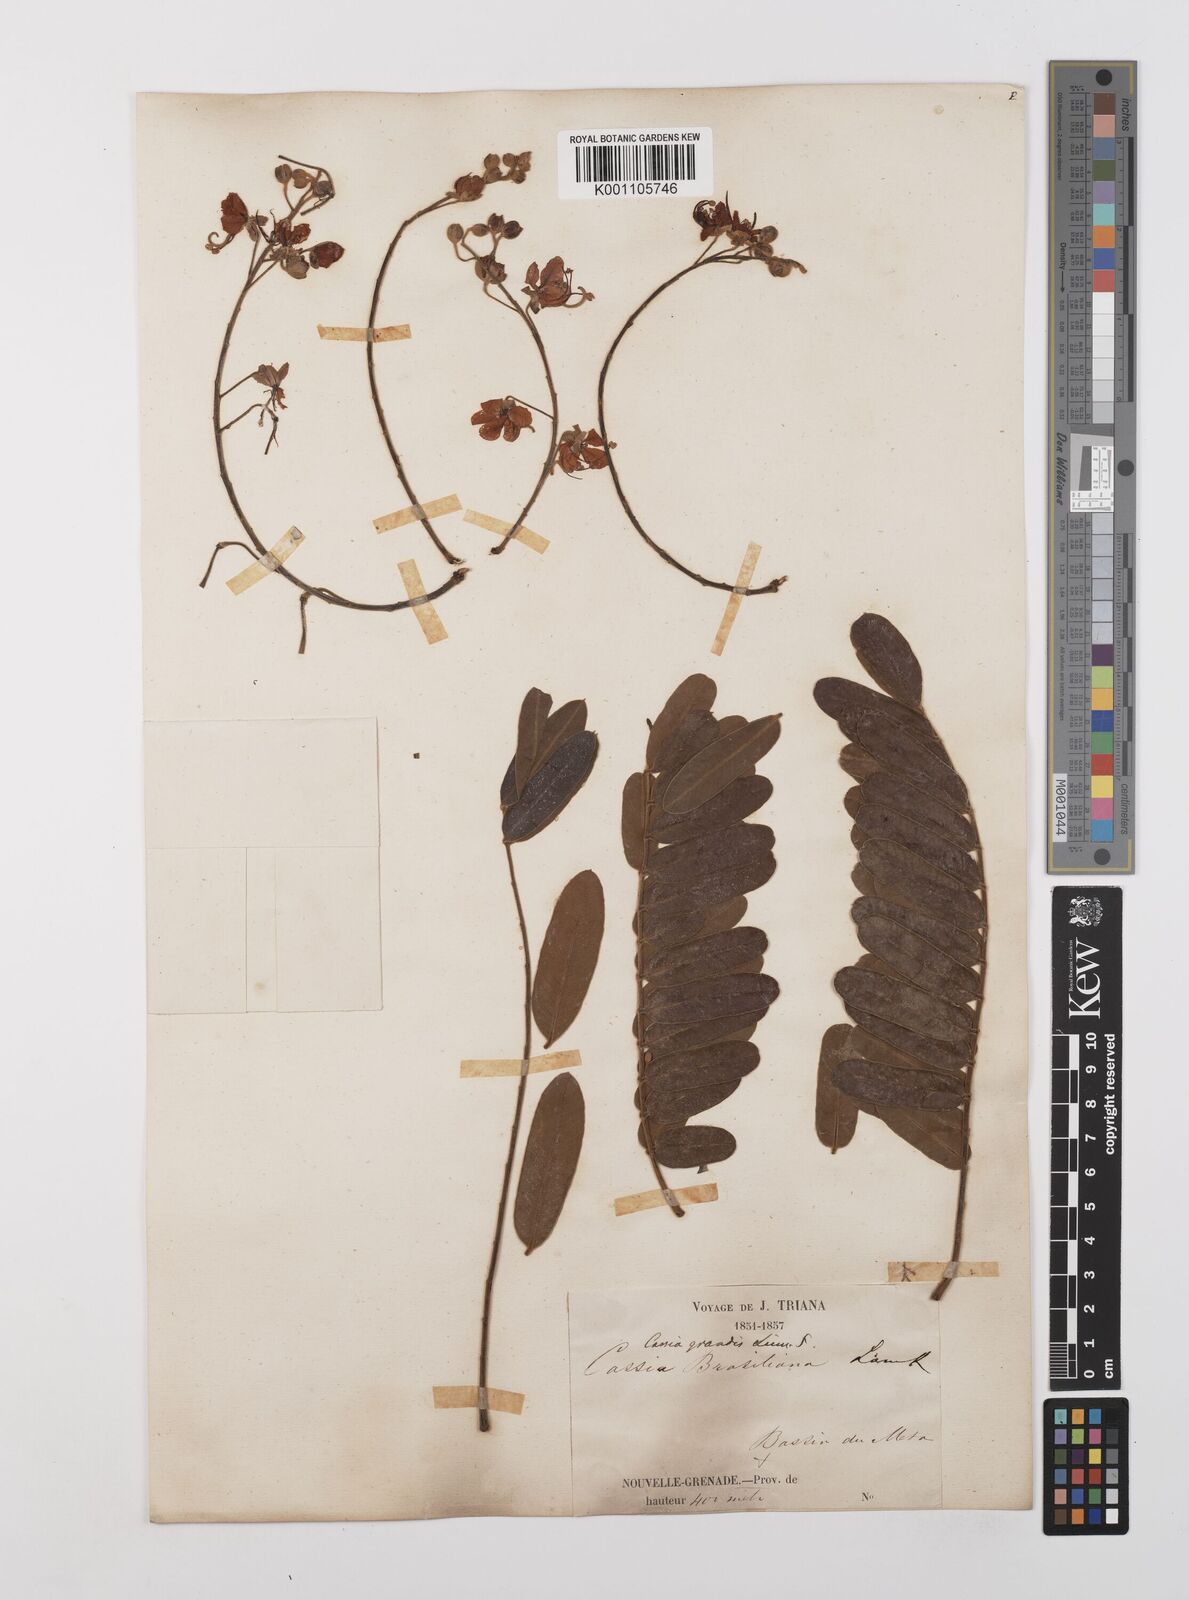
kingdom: Plantae
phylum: Tracheophyta
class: Magnoliopsida
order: Fabales
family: Fabaceae
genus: Cassia
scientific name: Cassia grandis
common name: Appleblossom cassia
